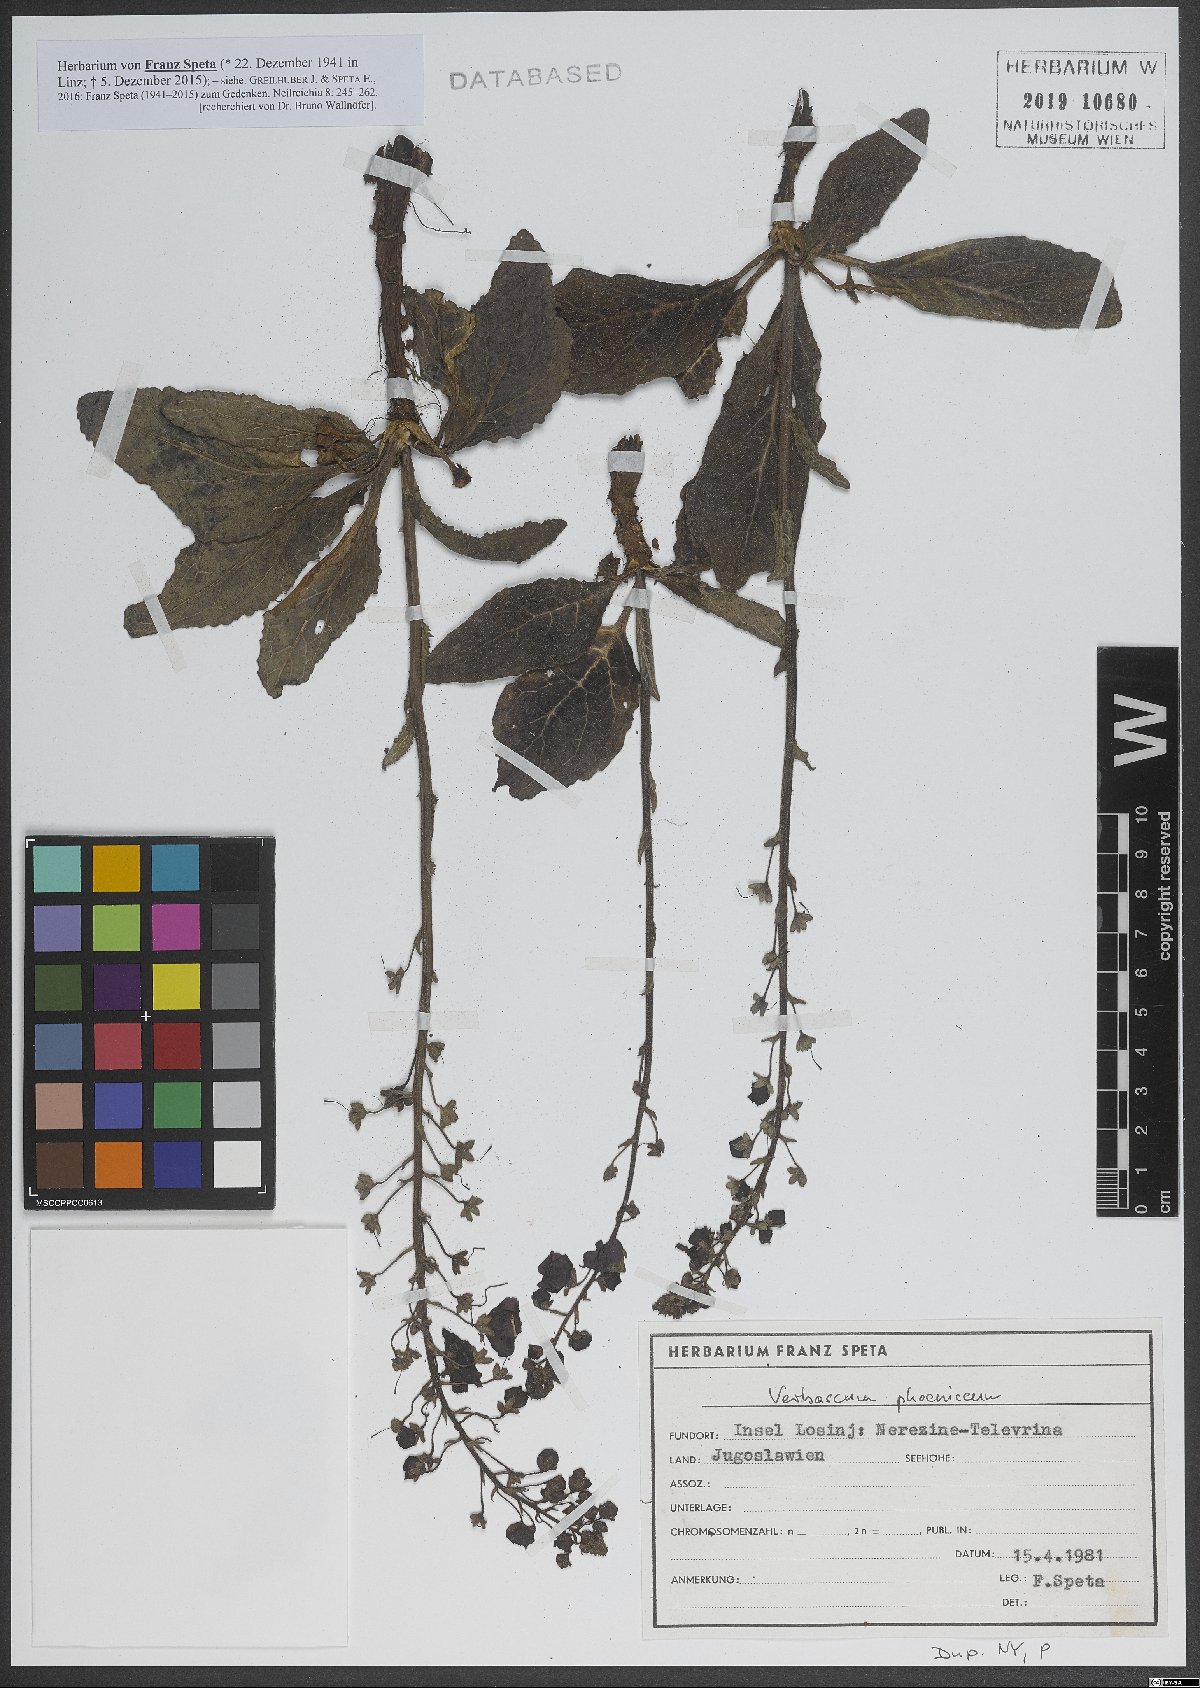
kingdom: Plantae
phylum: Tracheophyta
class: Magnoliopsida
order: Lamiales
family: Scrophulariaceae
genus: Verbascum
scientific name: Verbascum phoeniceum
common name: Purple mullein
